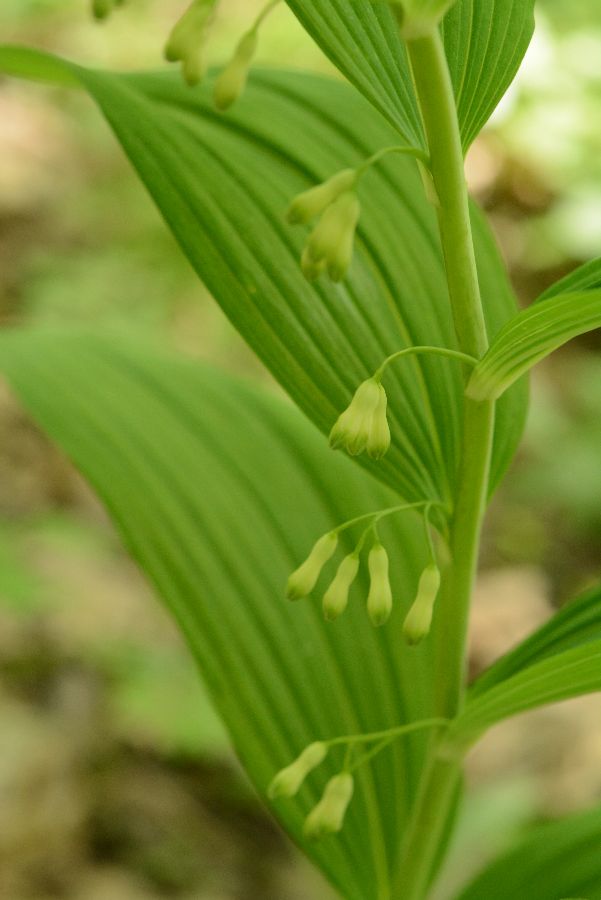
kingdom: Plantae
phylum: Tracheophyta
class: Liliopsida
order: Asparagales
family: Asparagaceae
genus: Polygonatum
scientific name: Polygonatum multiflorum
